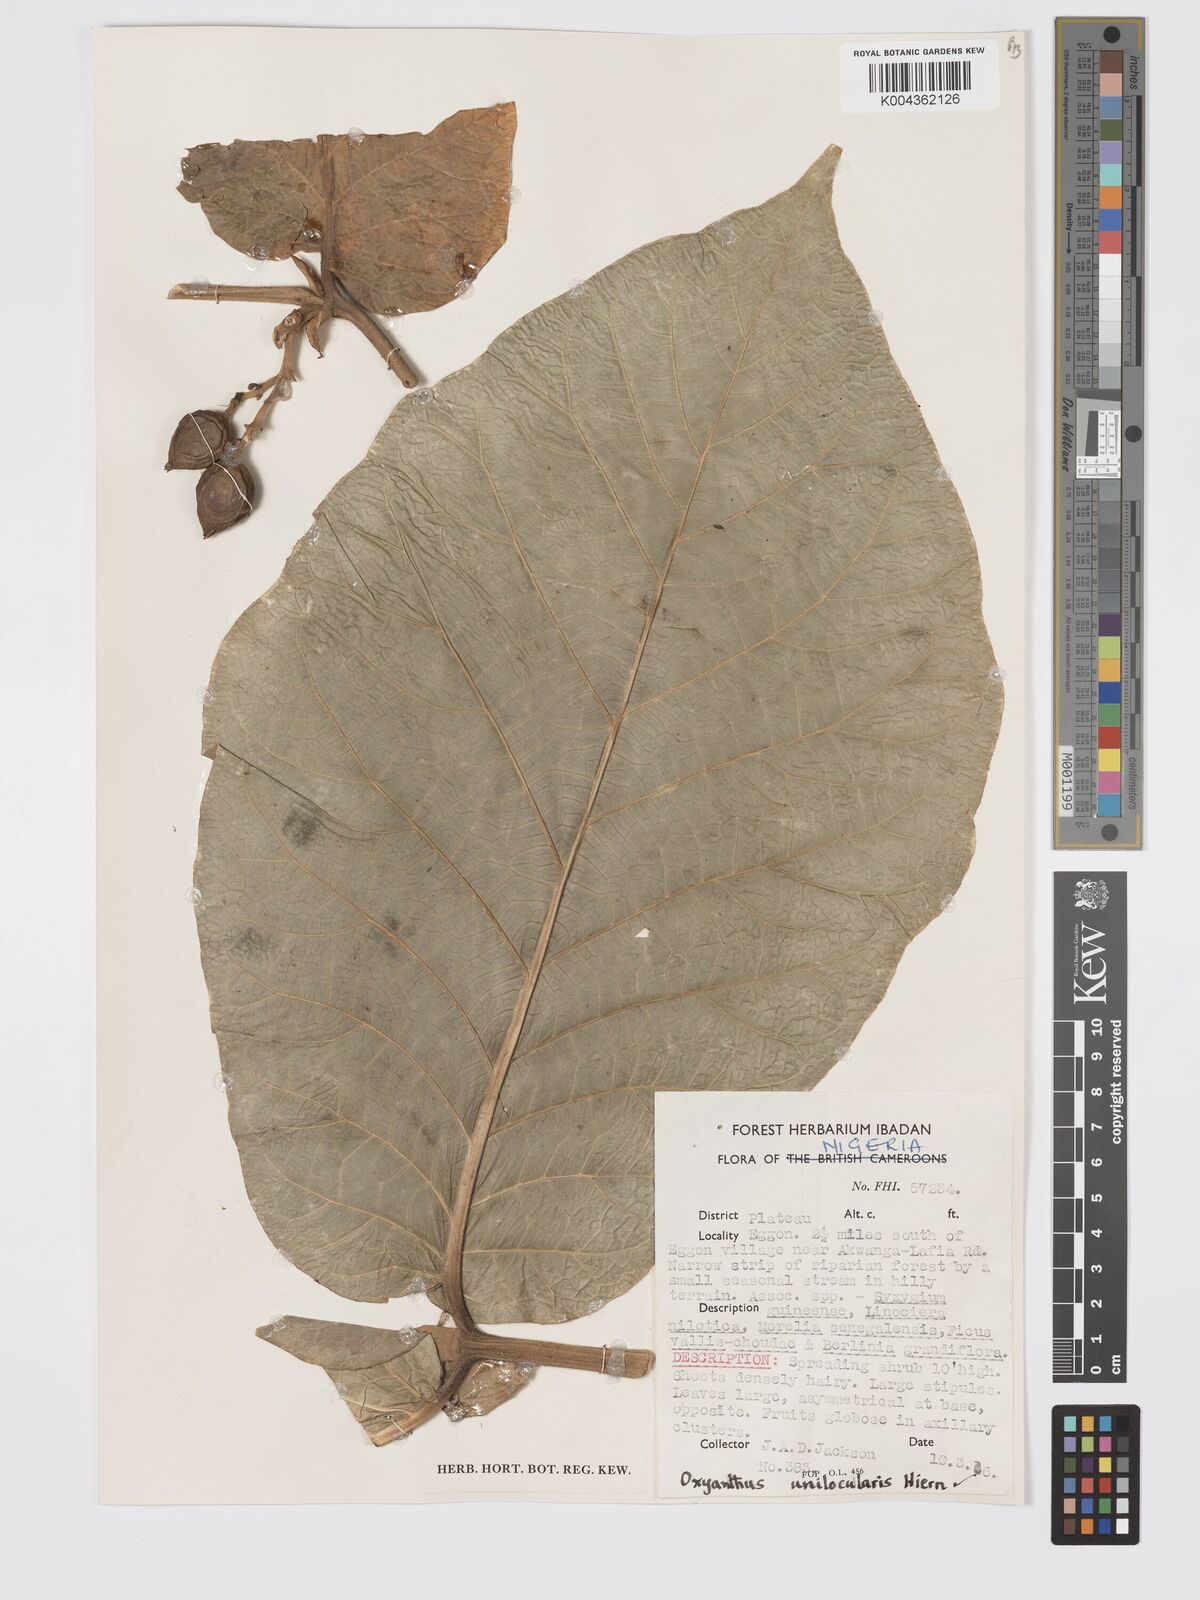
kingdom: Plantae
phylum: Tracheophyta
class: Magnoliopsida
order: Gentianales
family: Rubiaceae
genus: Oxyanthus
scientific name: Oxyanthus unilocularis
